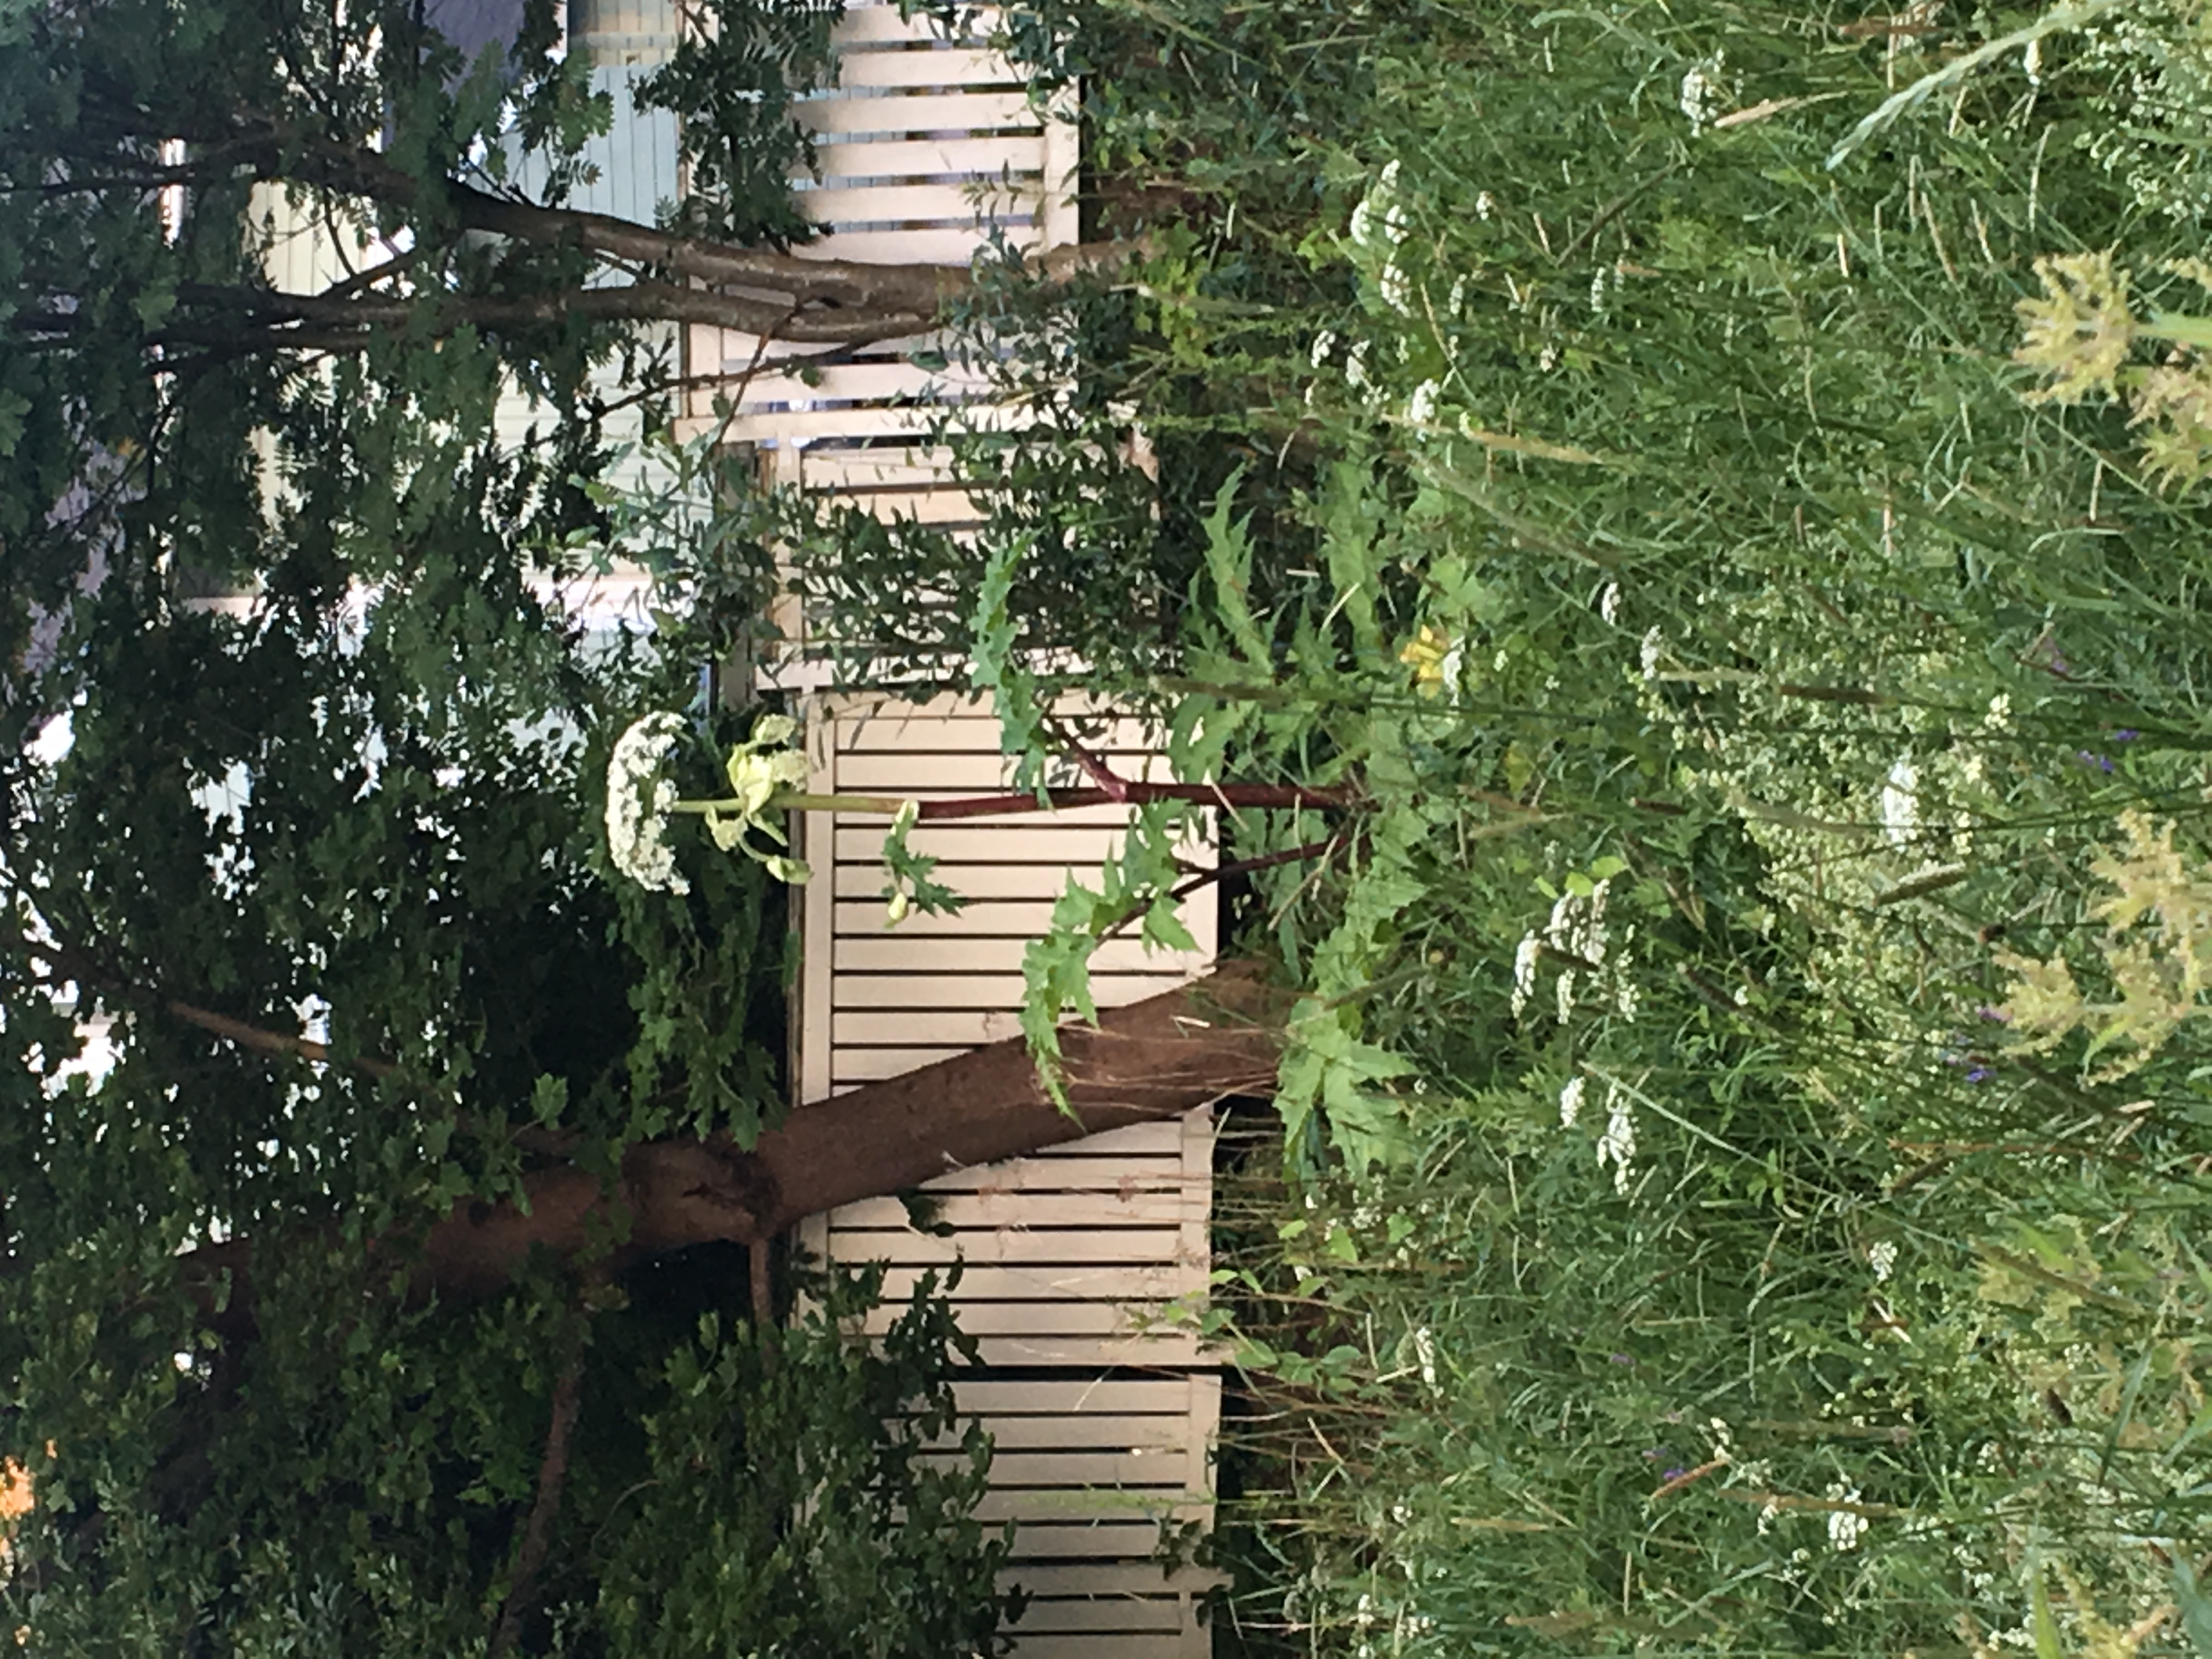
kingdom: Plantae
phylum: Tracheophyta
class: Magnoliopsida
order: Apiales
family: Apiaceae
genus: Heracleum
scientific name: Heracleum
